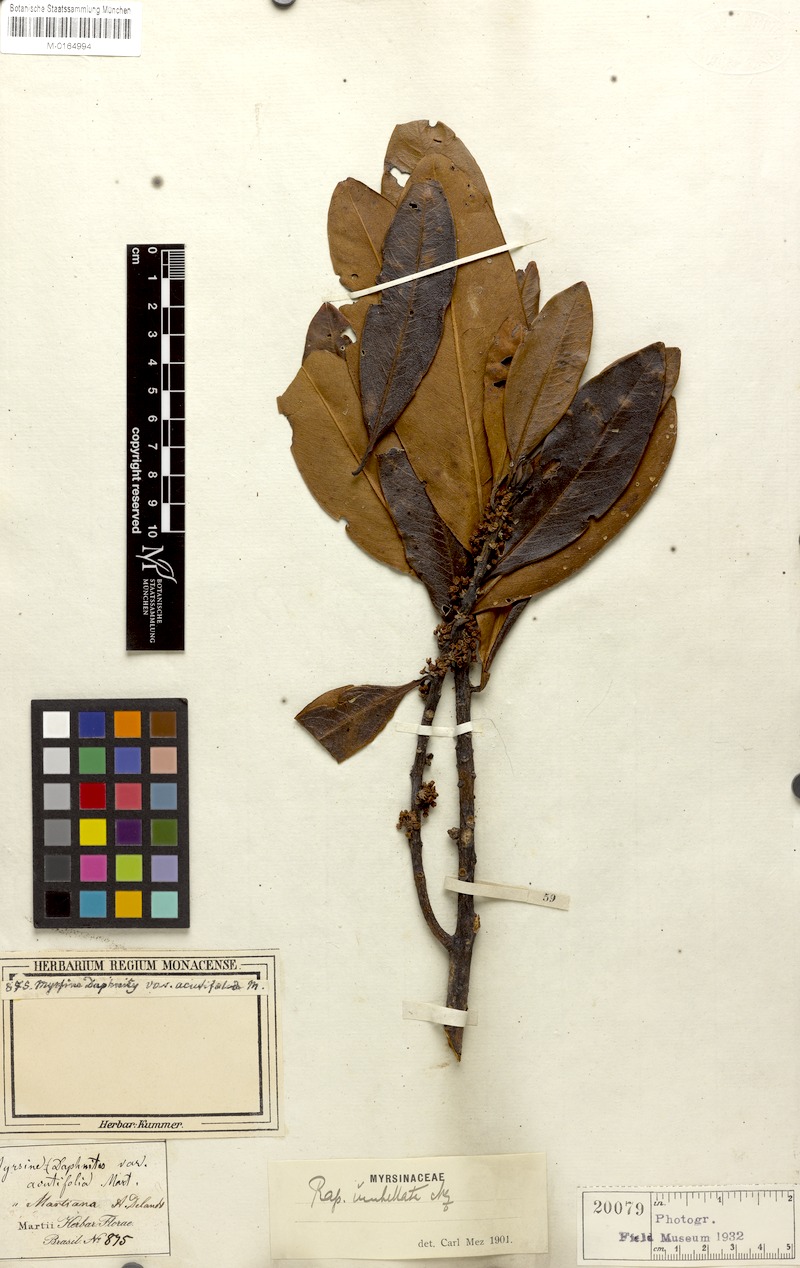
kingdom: Plantae
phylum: Tracheophyta
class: Magnoliopsida
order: Ericales
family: Primulaceae
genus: Myrsine
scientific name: Myrsine umbellata
